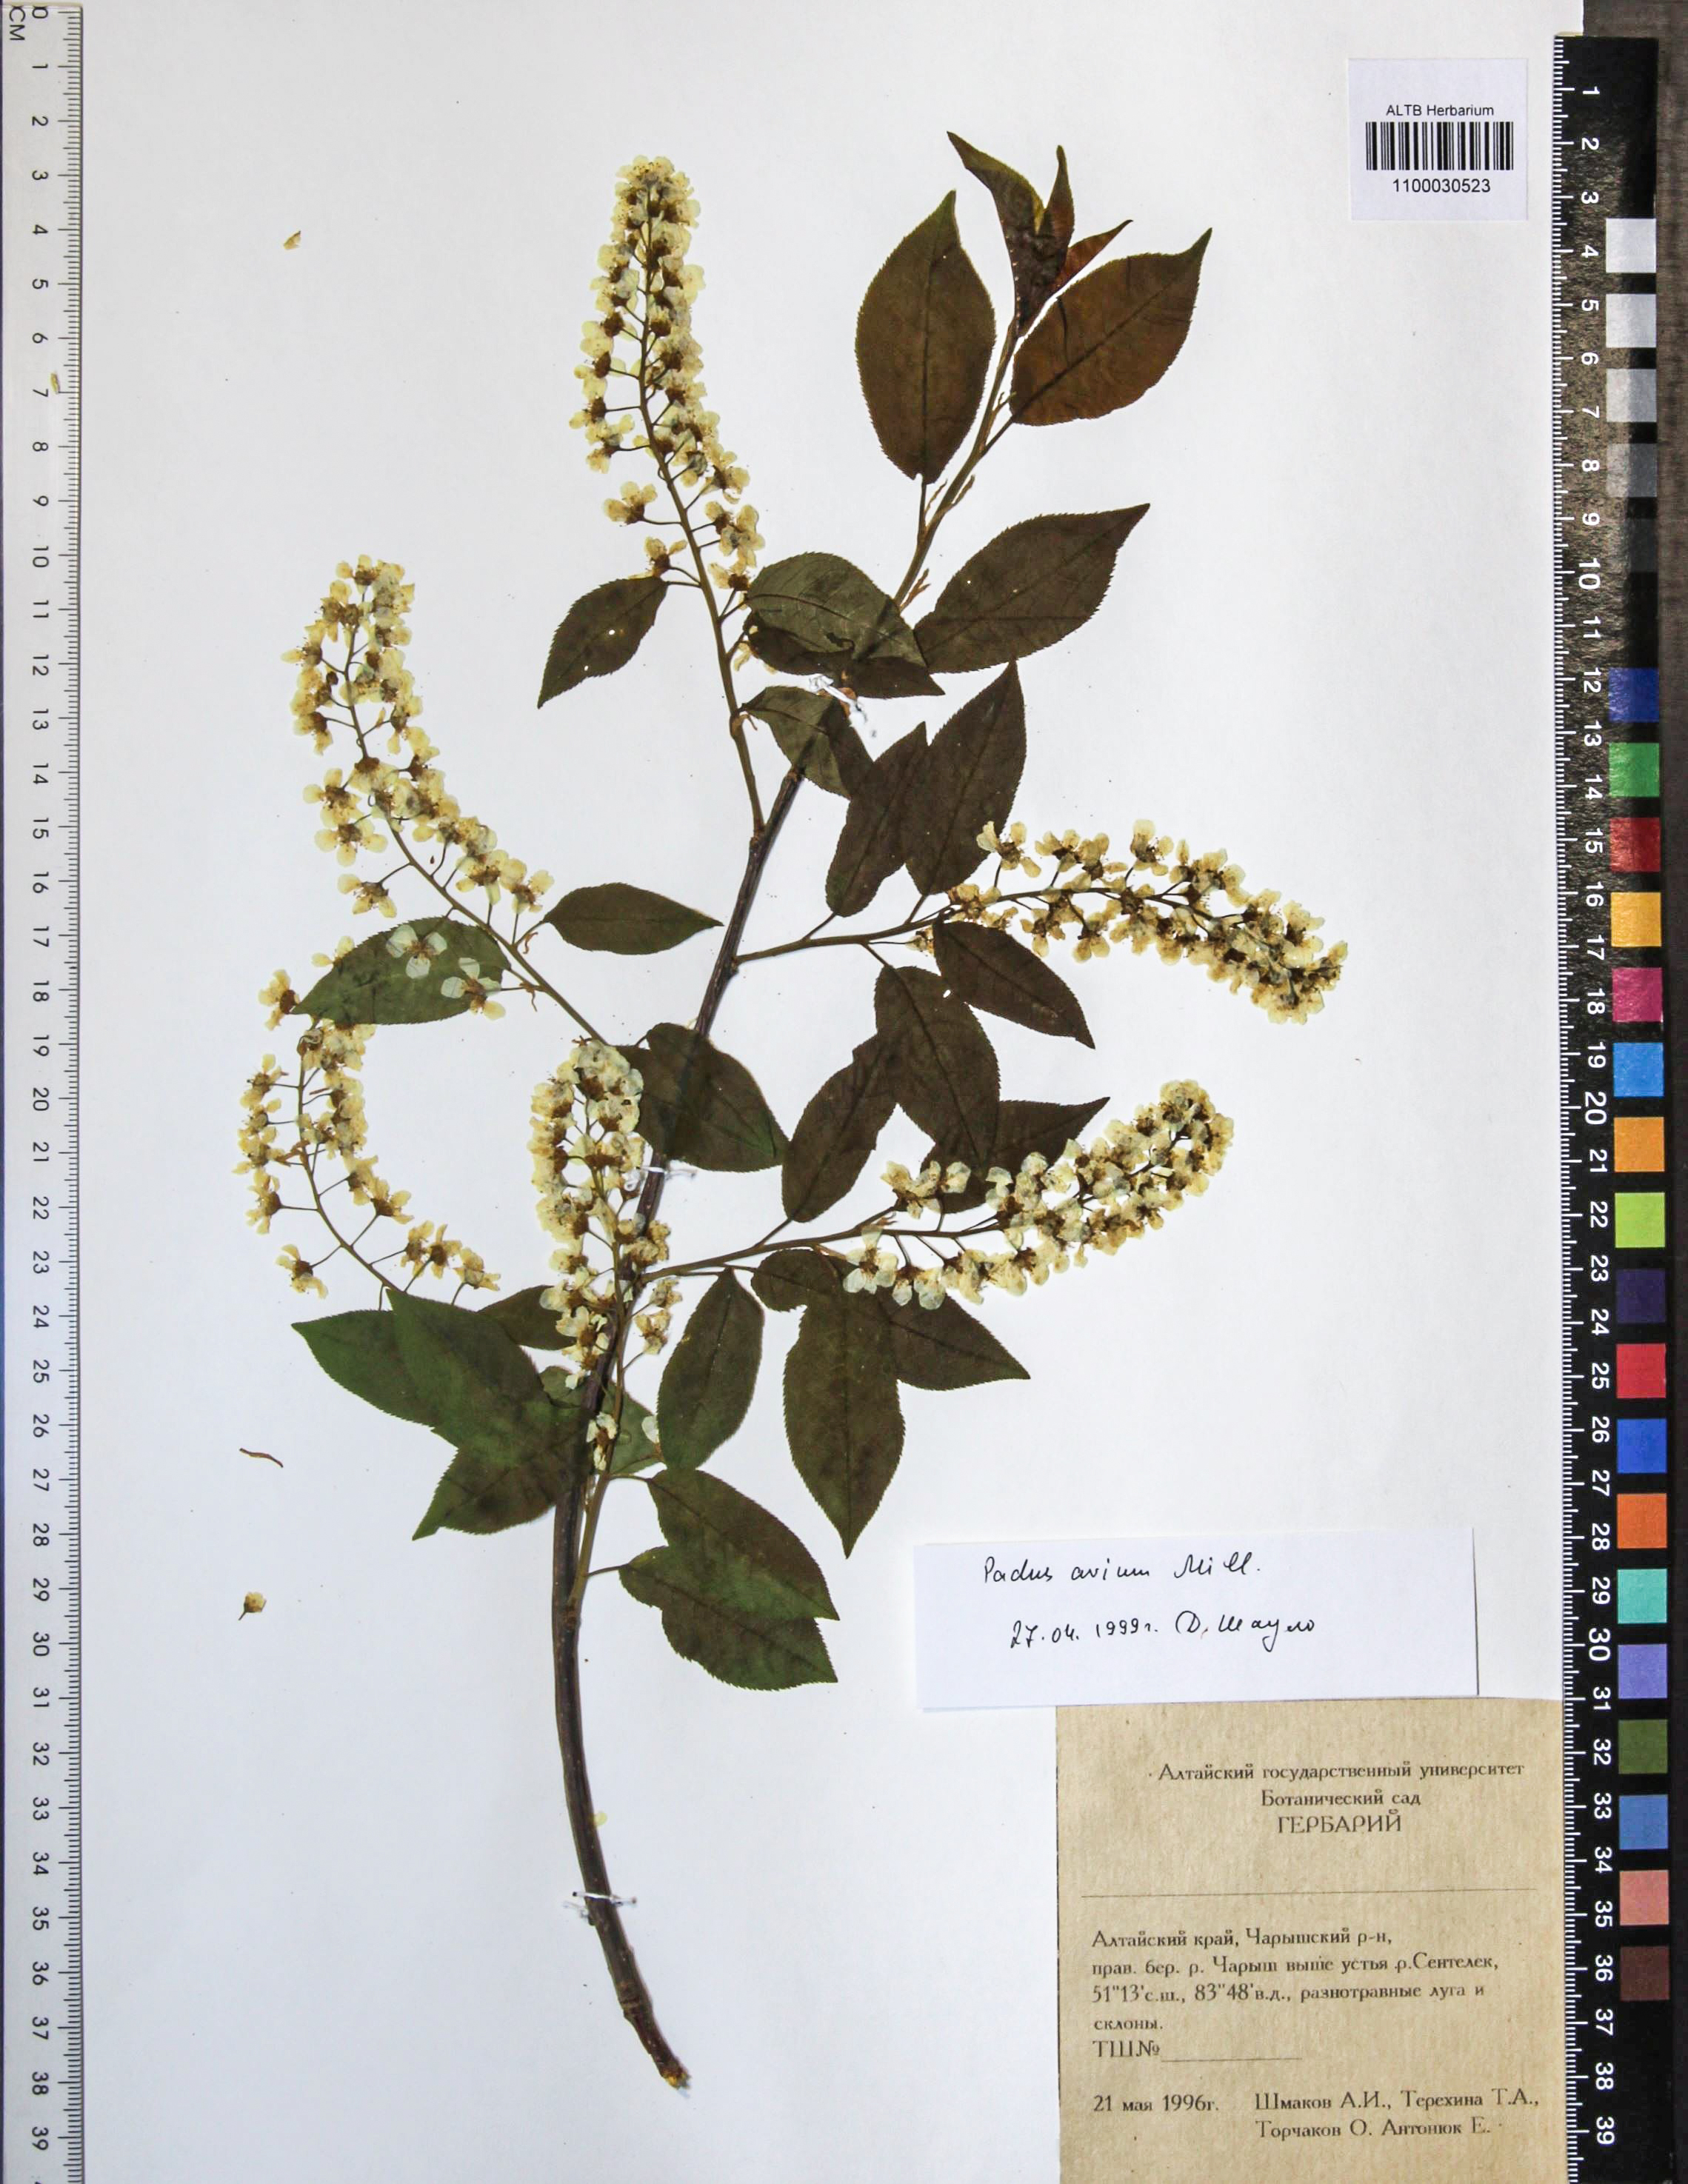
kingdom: Plantae
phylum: Tracheophyta
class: Magnoliopsida
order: Rosales
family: Rosaceae
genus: Prunus
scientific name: Prunus padus
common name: Bird cherry
